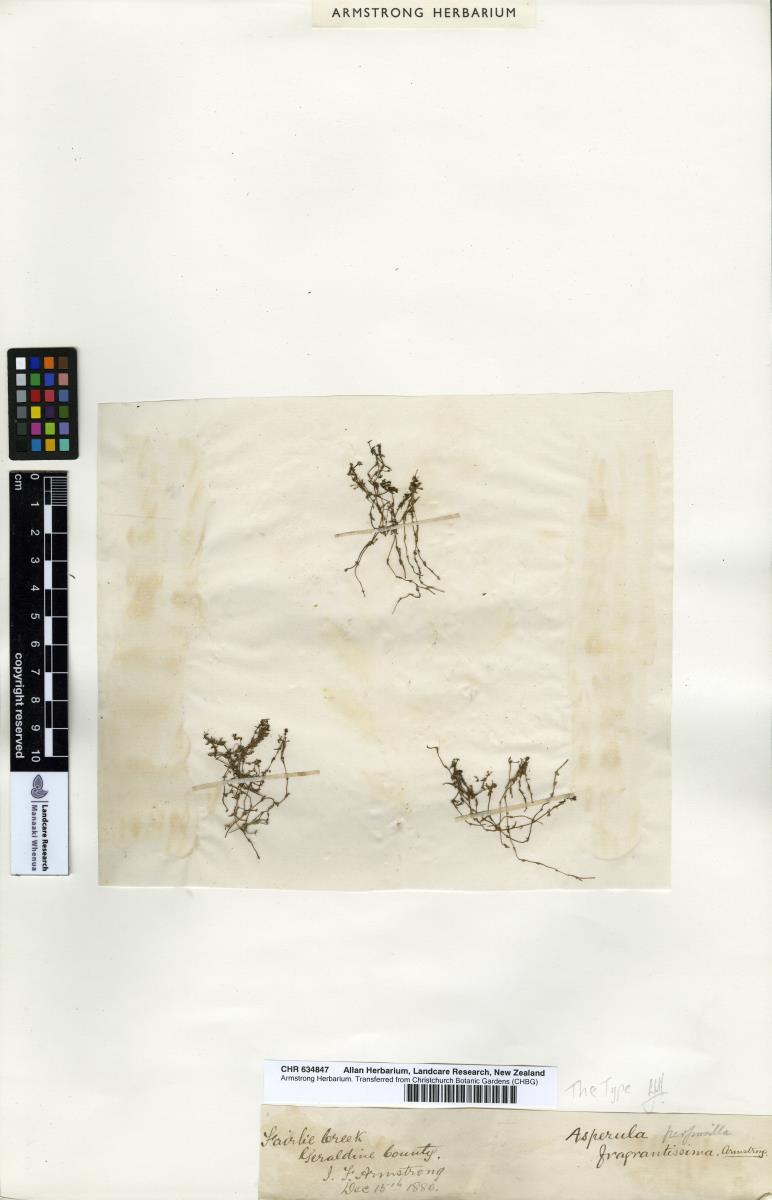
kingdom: Plantae
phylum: Tracheophyta
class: Magnoliopsida
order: Gentianales
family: Rubiaceae
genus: Galium
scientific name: Galium propinquum
